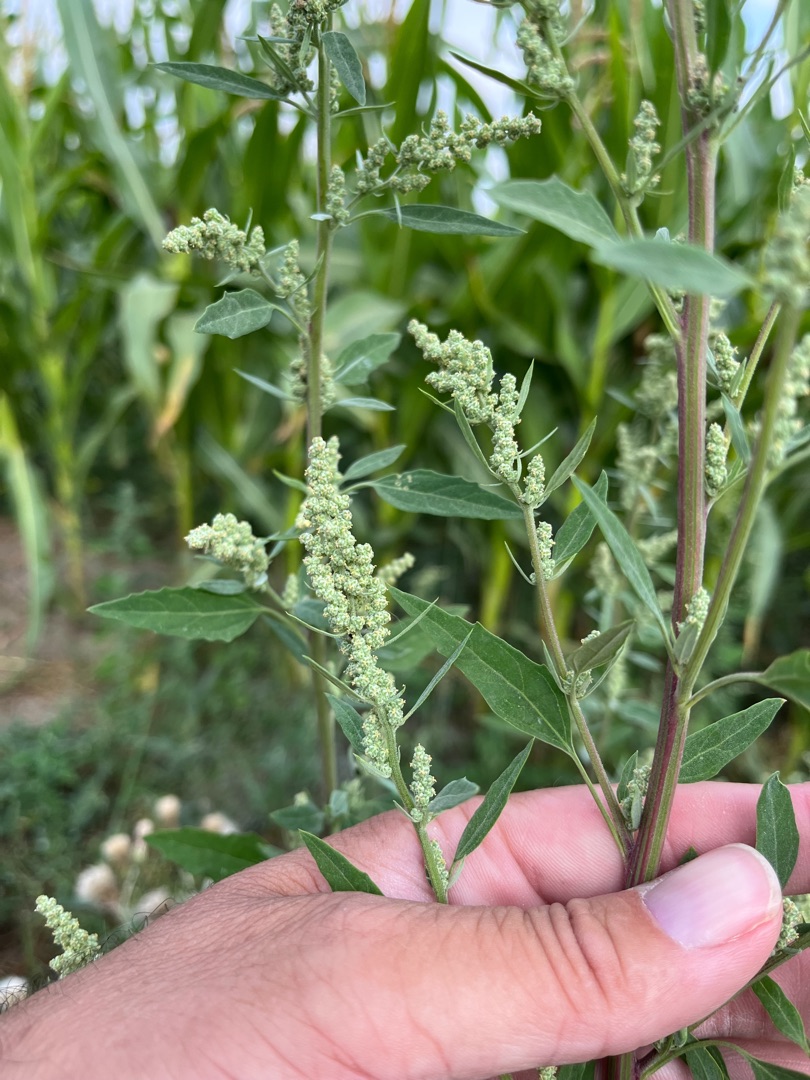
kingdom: Plantae
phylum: Tracheophyta
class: Magnoliopsida
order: Caryophyllales
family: Amaranthaceae
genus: Chenopodium
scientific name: Chenopodium album
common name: Hvidmelet gåsefod
